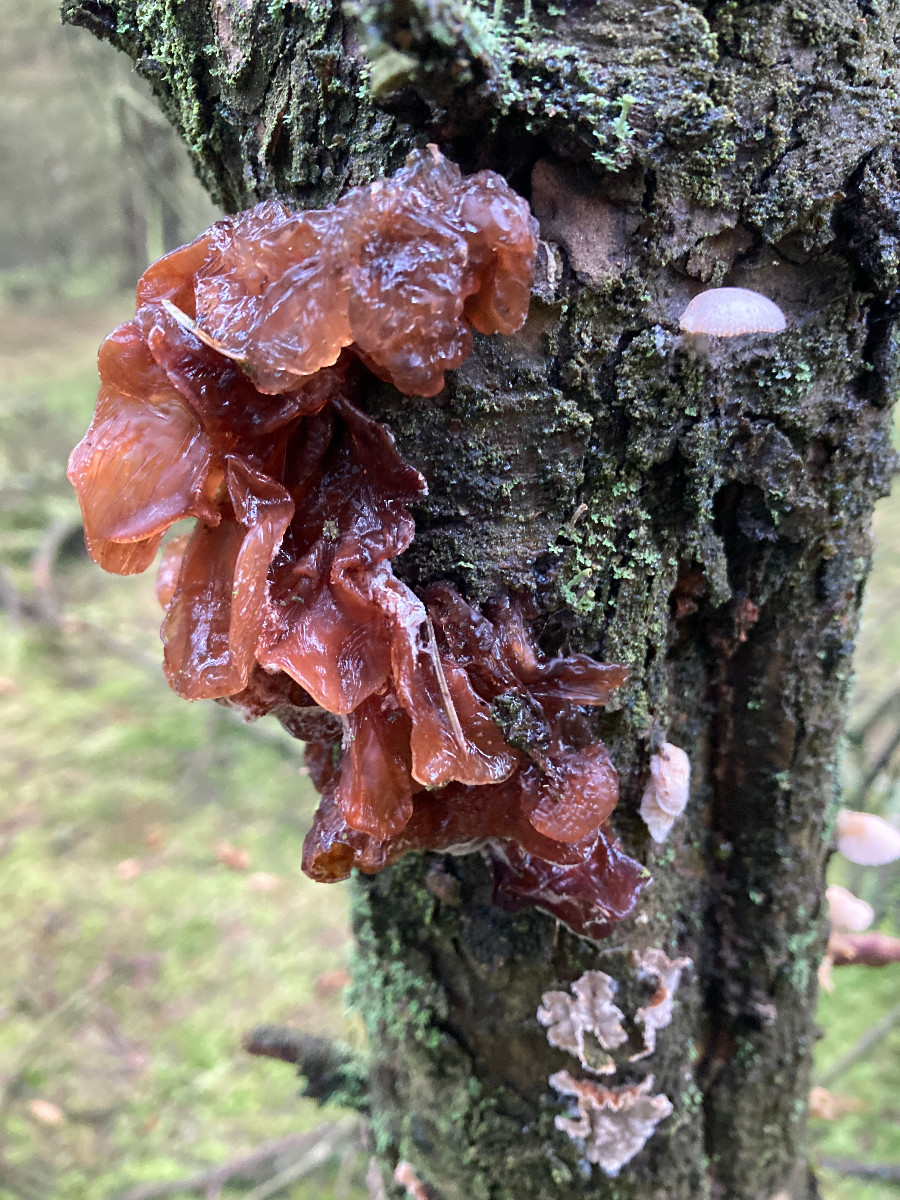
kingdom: Fungi
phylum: Basidiomycota
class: Tremellomycetes
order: Tremellales
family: Tremellaceae
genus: Phaeotremella
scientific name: Phaeotremella foliacea
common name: brun bævresvamp
